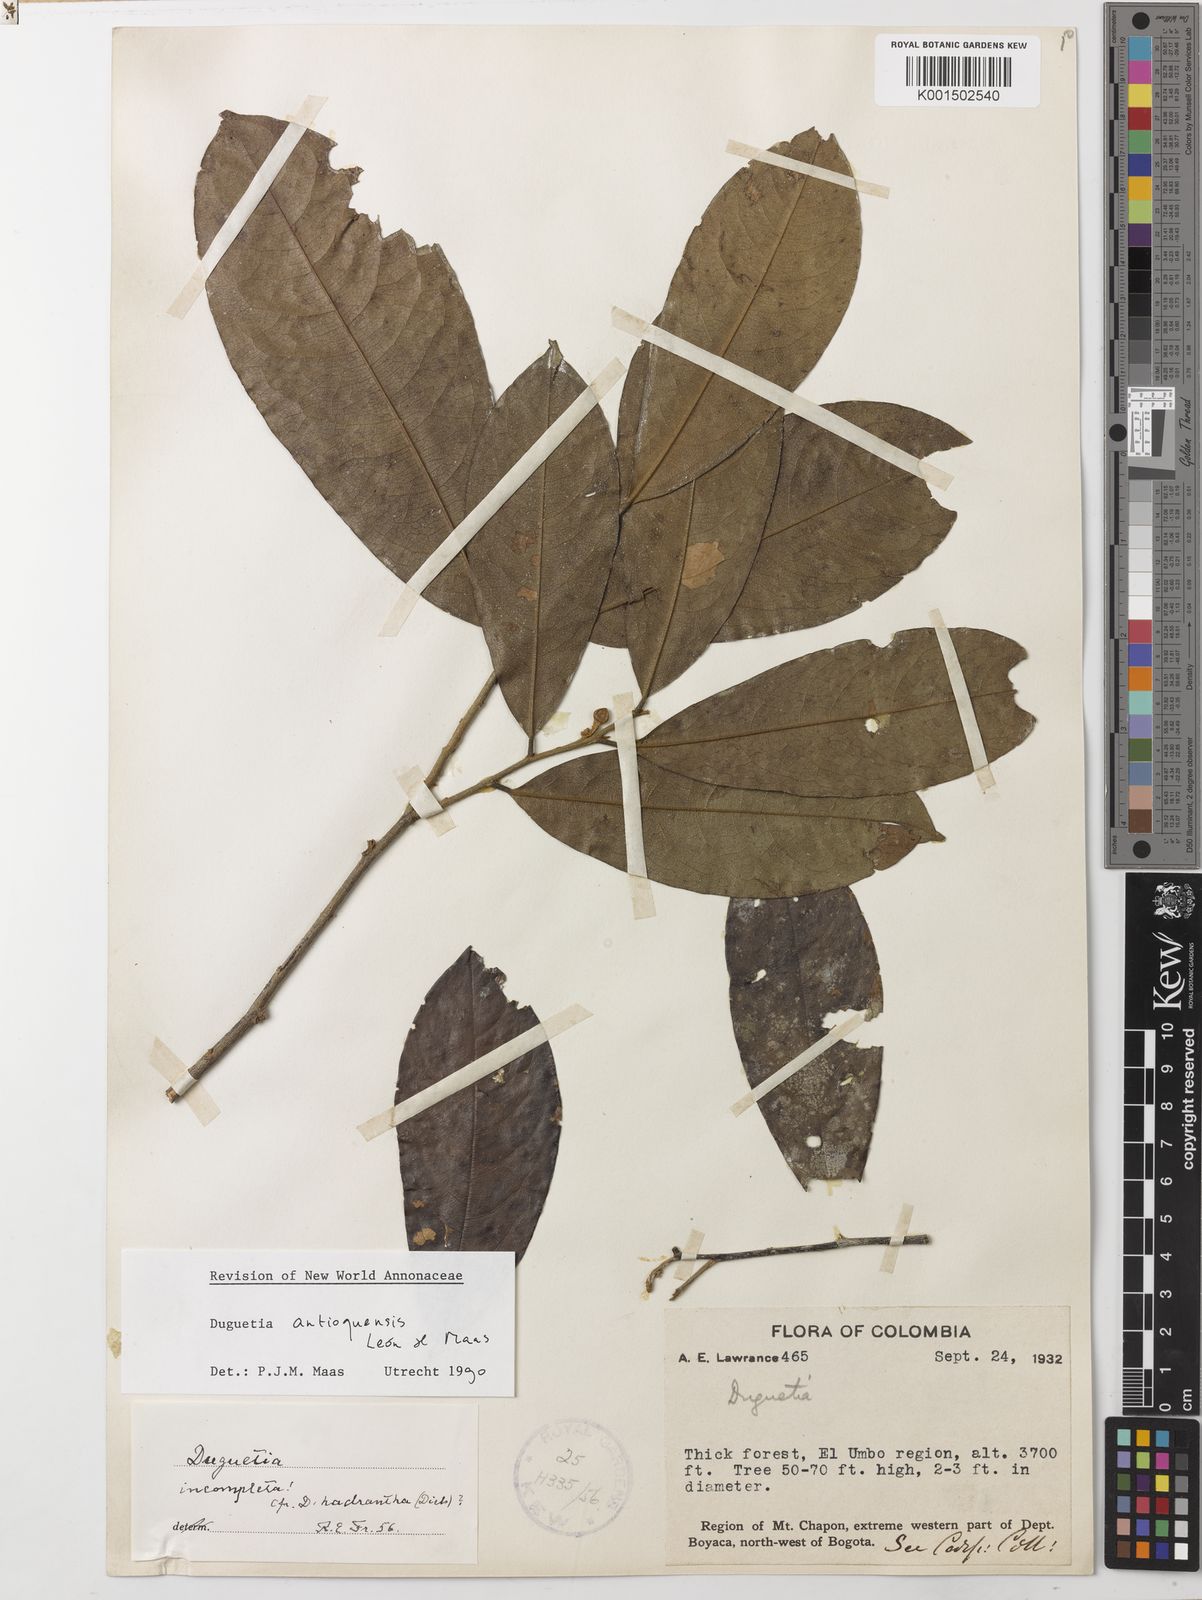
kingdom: Plantae
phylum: Tracheophyta
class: Magnoliopsida
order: Magnoliales
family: Annonaceae
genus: Duguetia
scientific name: Duguetia antioquensis
